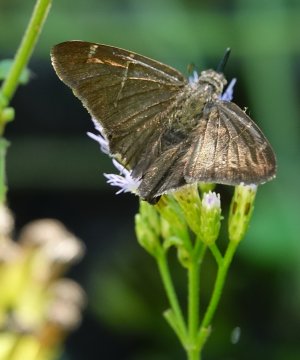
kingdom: Animalia
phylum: Arthropoda
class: Insecta
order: Lepidoptera
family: Hesperiidae
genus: Urbanus
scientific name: Urbanus procne
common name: Brown Longtail
